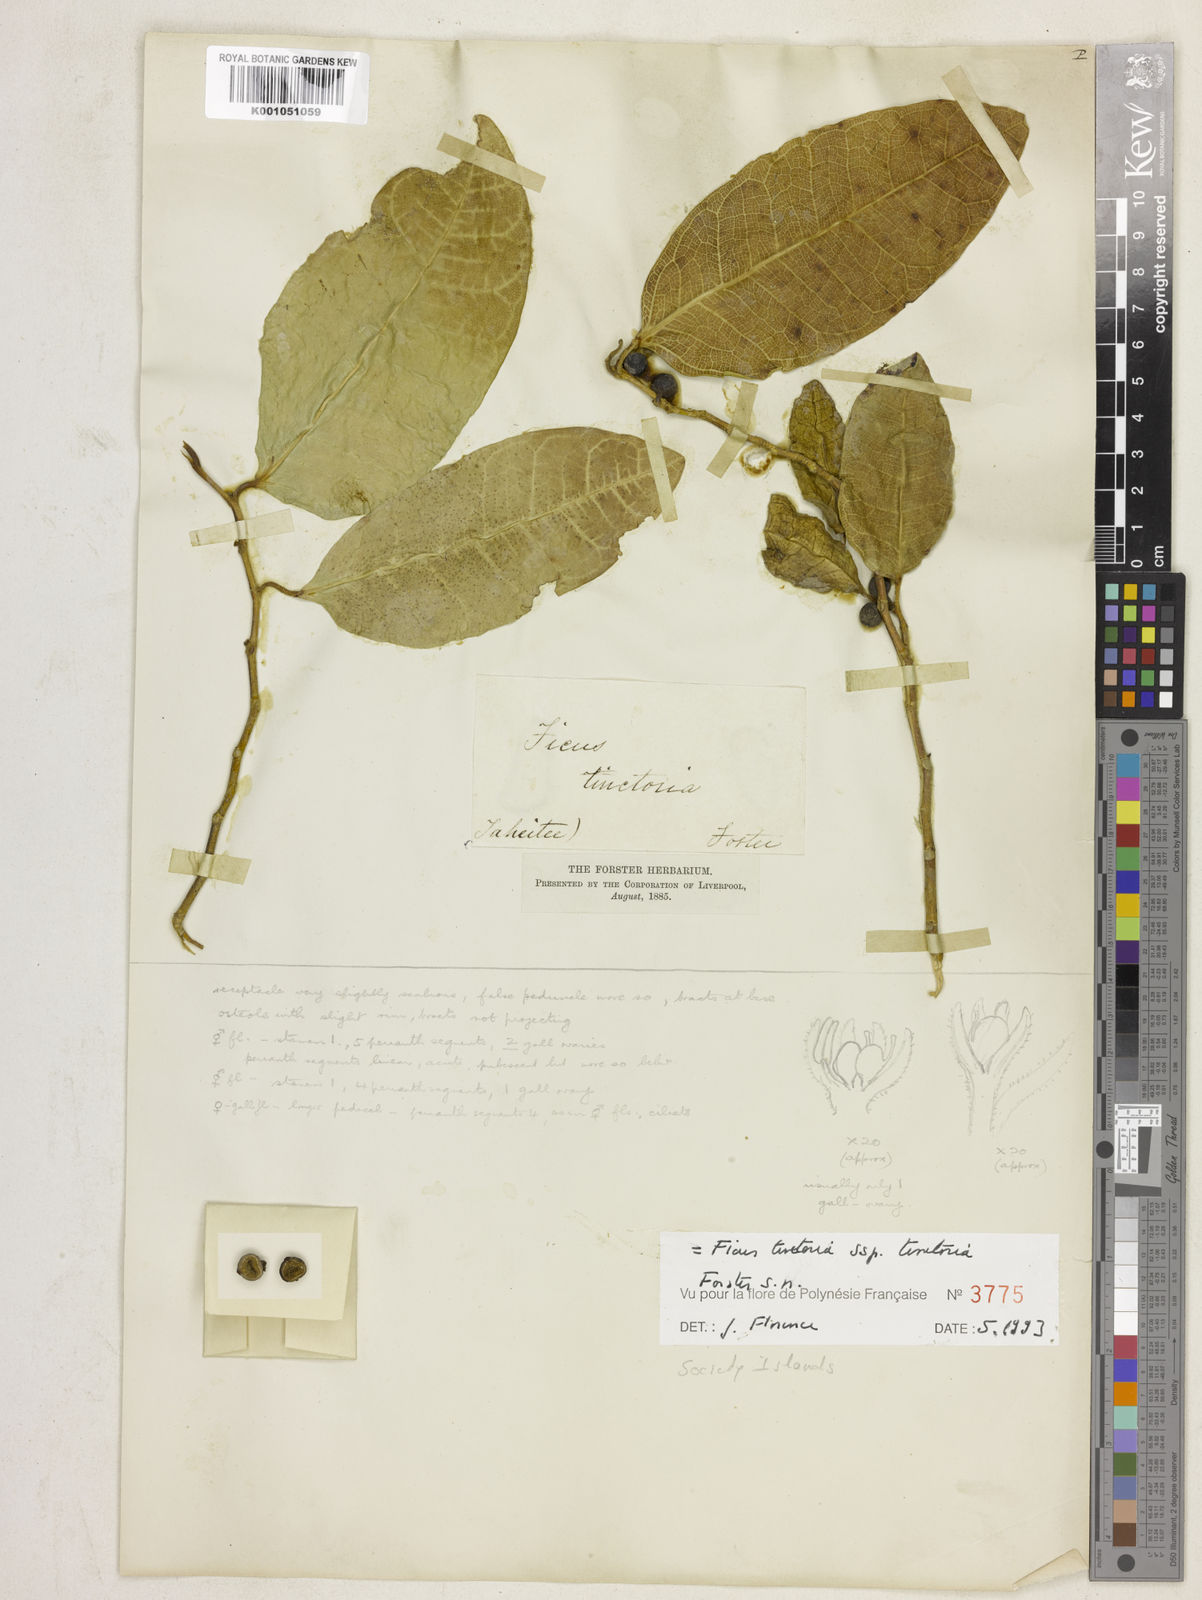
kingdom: Plantae
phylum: Tracheophyta
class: Magnoliopsida
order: Rosales
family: Moraceae
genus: Ficus
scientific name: Ficus tinctoria
